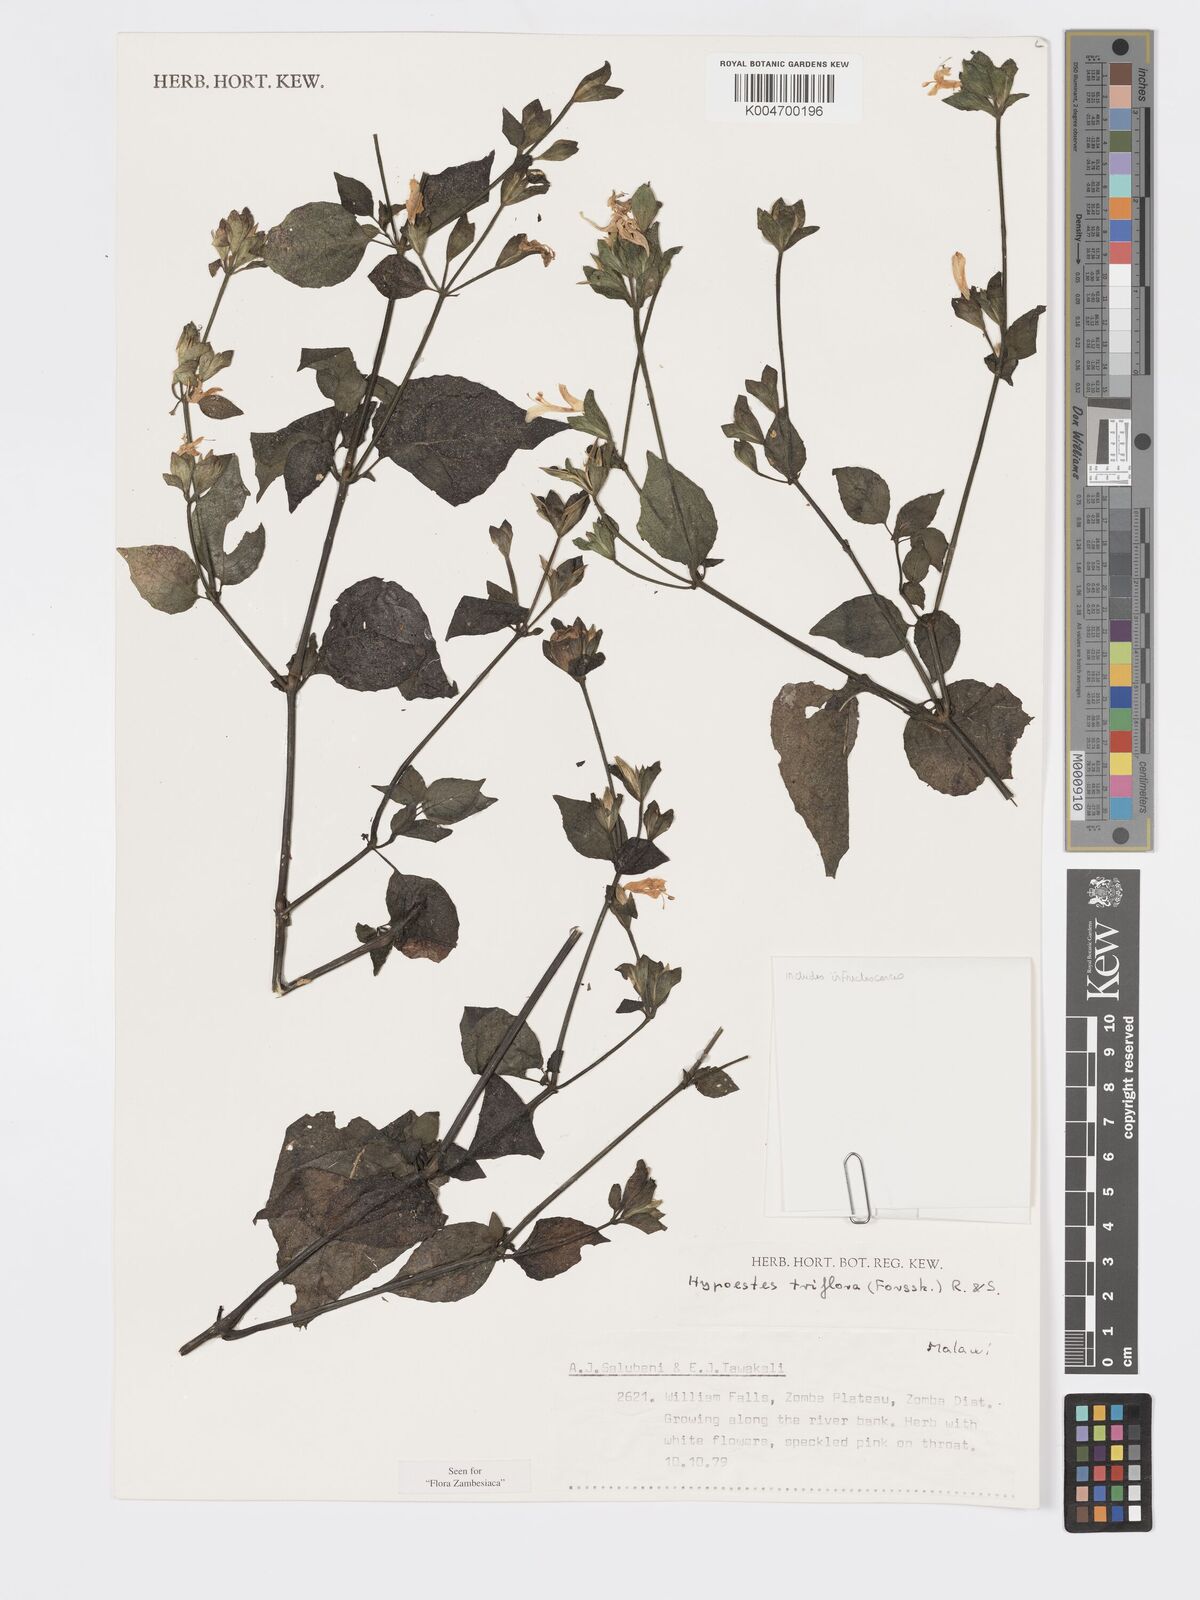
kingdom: Plantae
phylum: Tracheophyta
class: Magnoliopsida
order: Lamiales
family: Acanthaceae
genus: Hypoestes
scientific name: Hypoestes triflora
